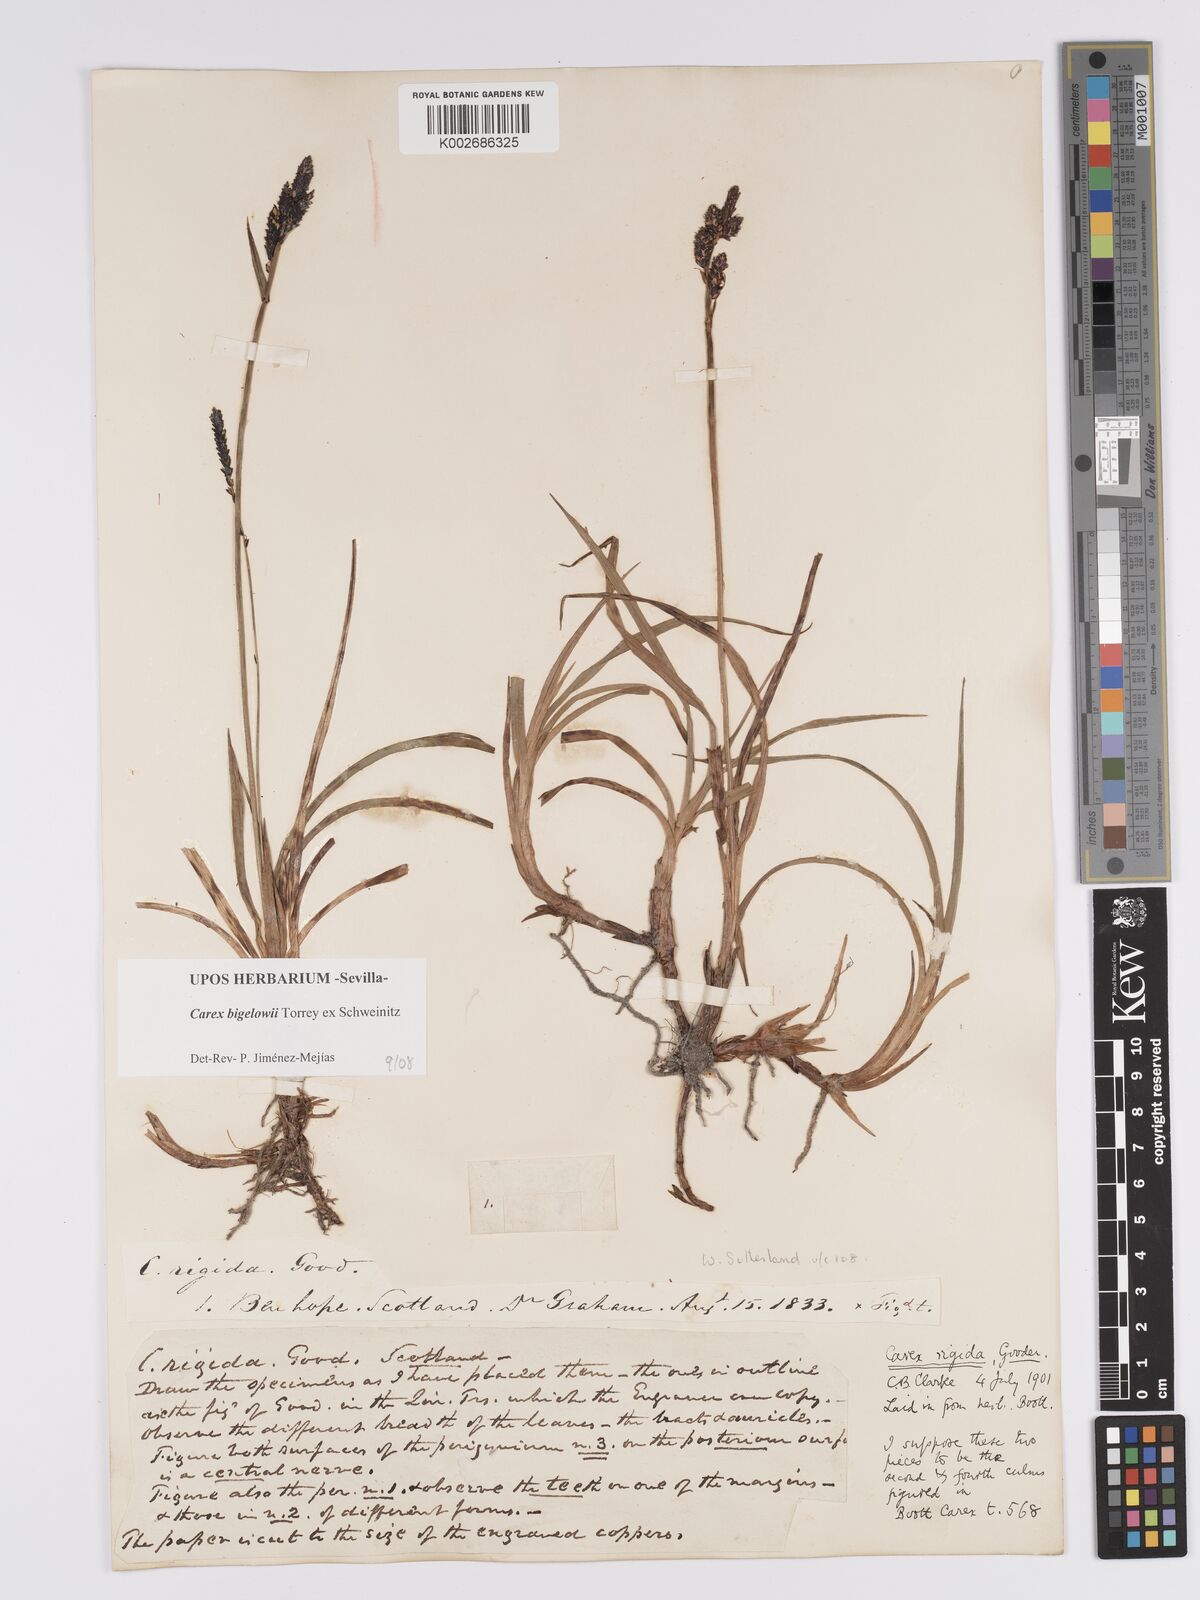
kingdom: Plantae
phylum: Tracheophyta
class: Liliopsida
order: Poales
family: Cyperaceae
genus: Carex
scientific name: Carex dacica
